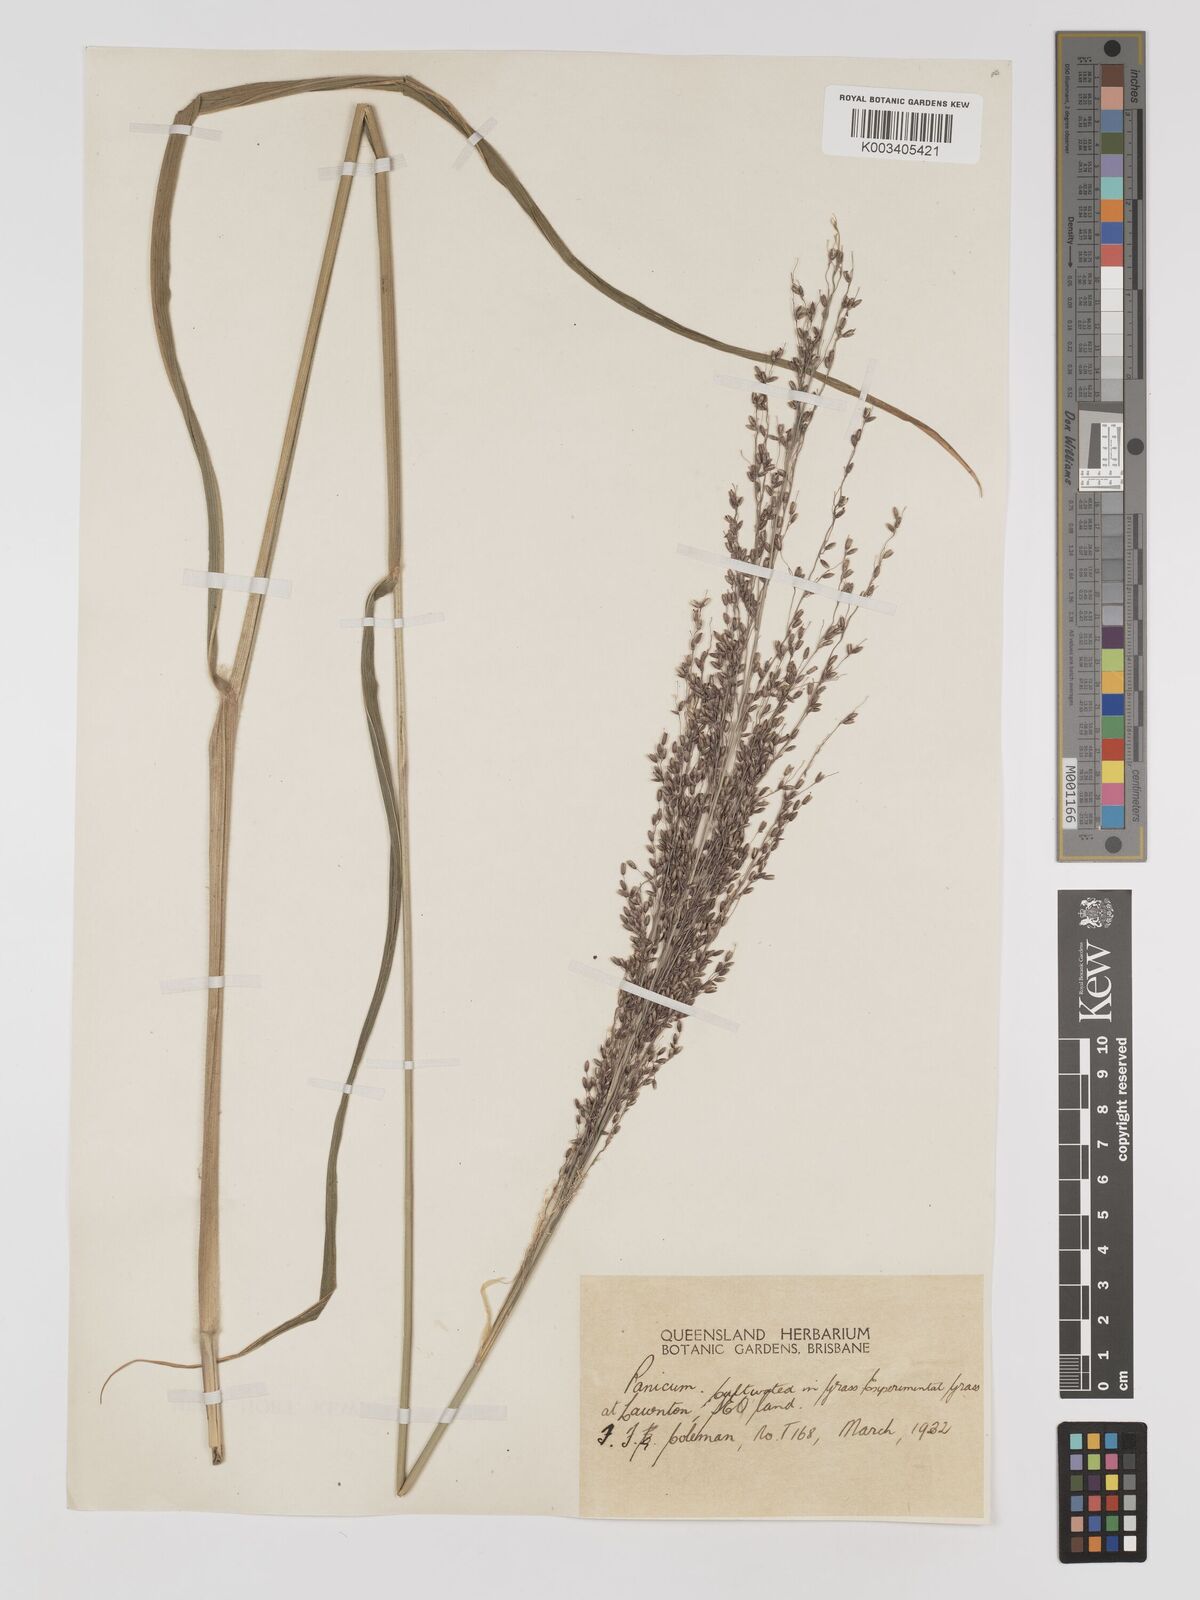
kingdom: Plantae
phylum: Tracheophyta
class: Liliopsida
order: Poales
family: Poaceae
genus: Megathyrsus
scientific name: Megathyrsus maximus
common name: Guineagrass
